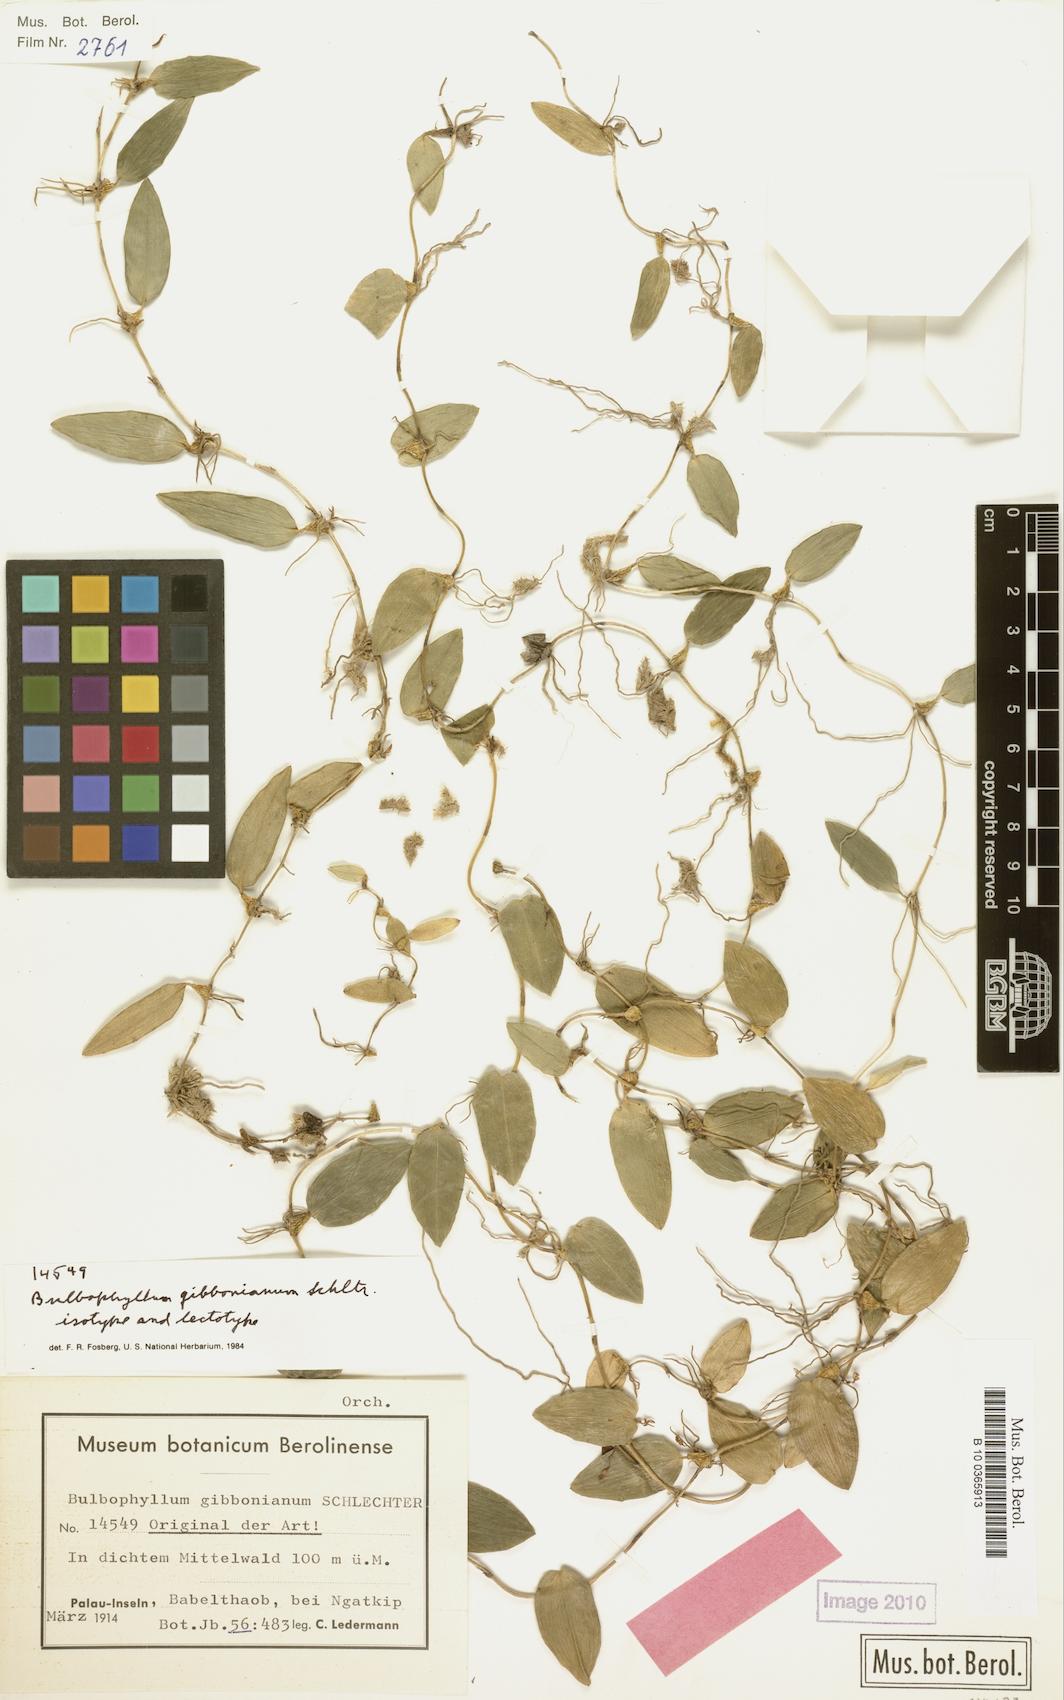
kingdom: Plantae
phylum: Tracheophyta
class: Liliopsida
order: Asparagales
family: Orchidaceae
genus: Bulbophyllum
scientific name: Bulbophyllum membranaceum
